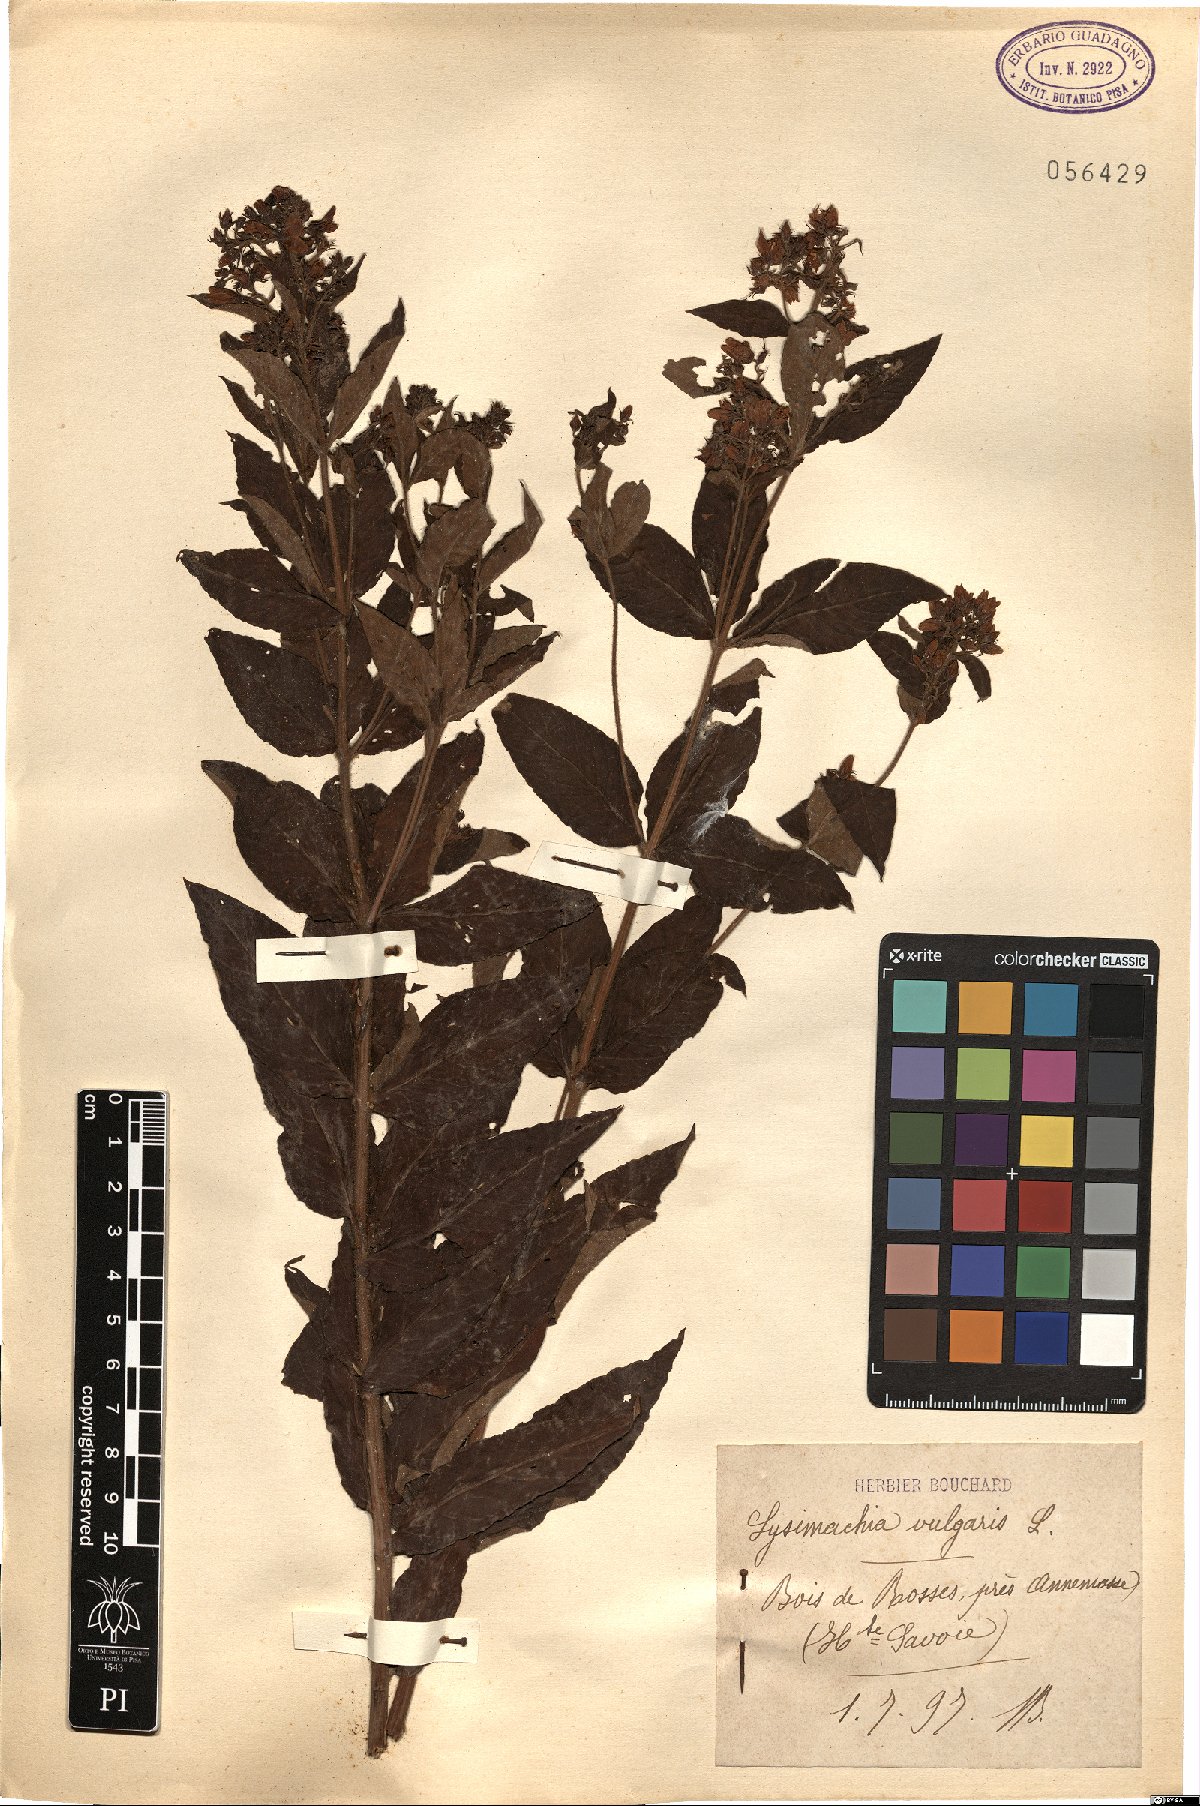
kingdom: Plantae
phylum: Tracheophyta
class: Magnoliopsida
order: Ericales
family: Primulaceae
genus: Lysimachia
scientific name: Lysimachia vulgaris
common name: Yellow loosestrife
